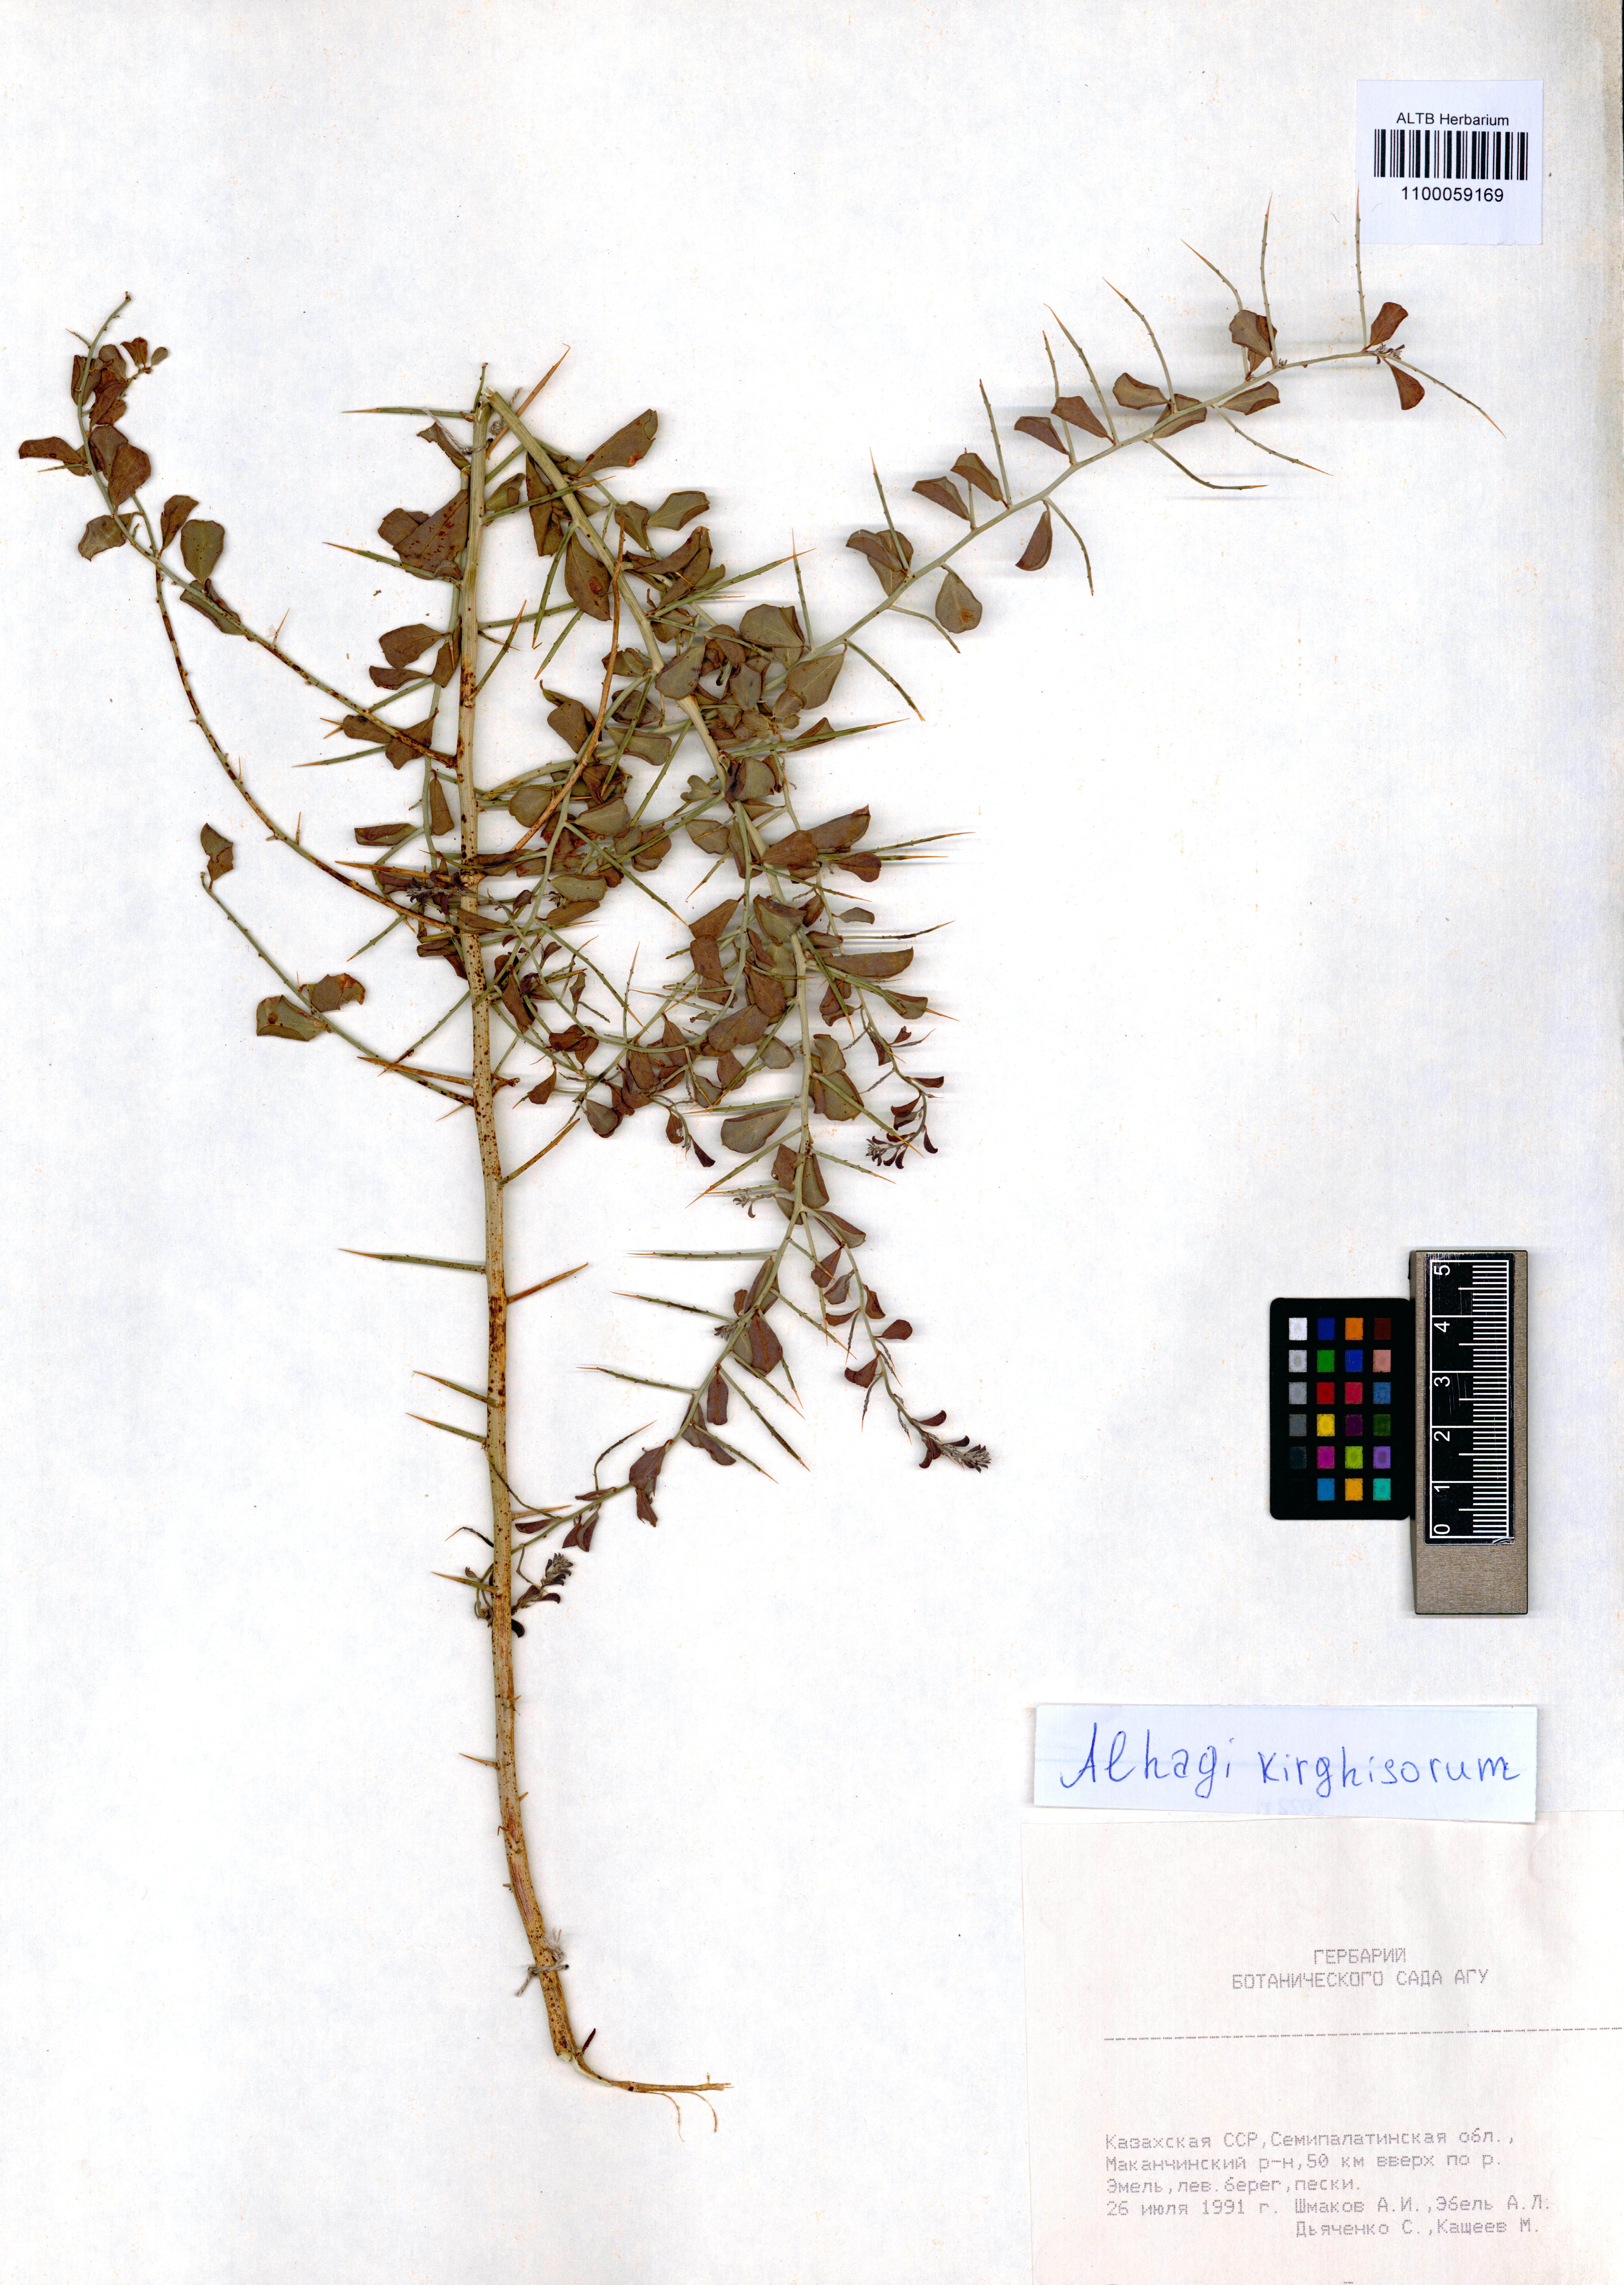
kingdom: Plantae
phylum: Tracheophyta
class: Magnoliopsida
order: Fabales
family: Fabaceae
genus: Alhagi
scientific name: Alhagi kirghisorum
